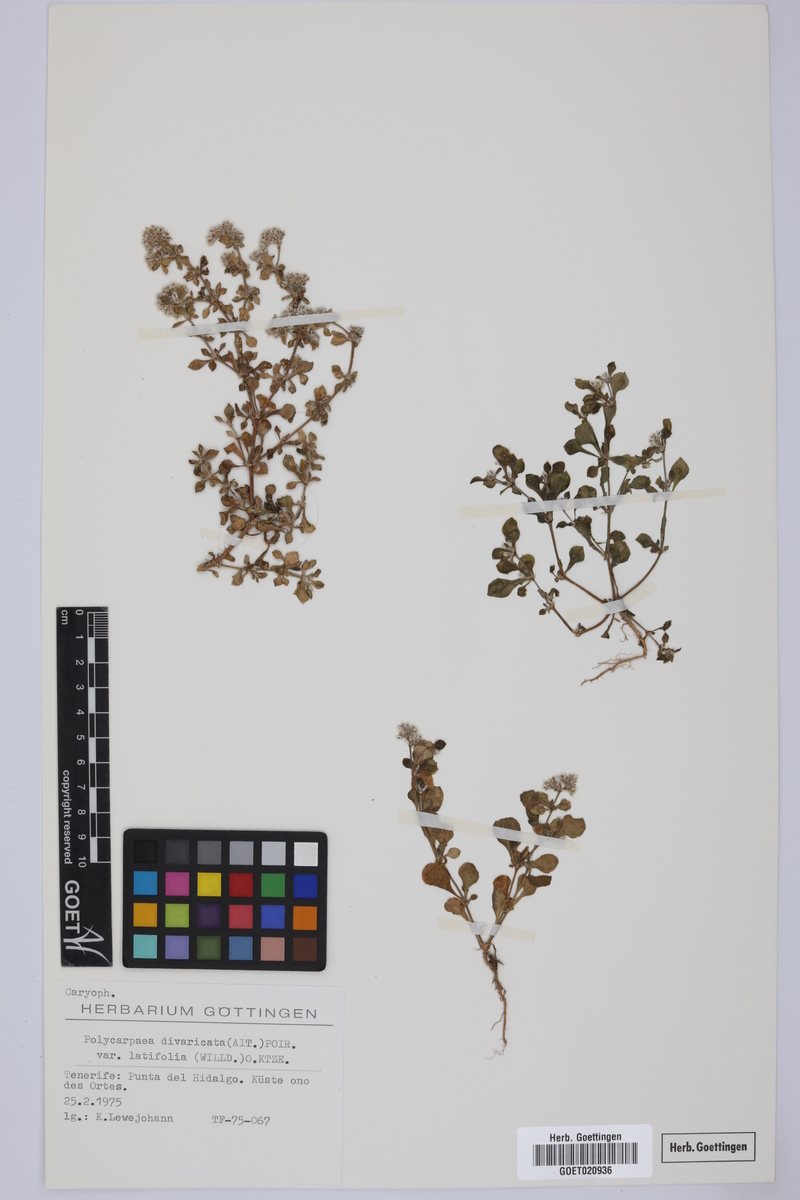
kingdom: Plantae
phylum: Tracheophyta
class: Magnoliopsida
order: Caryophyllales
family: Caryophyllaceae
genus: Polycarpaea
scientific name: Polycarpaea latifolia
